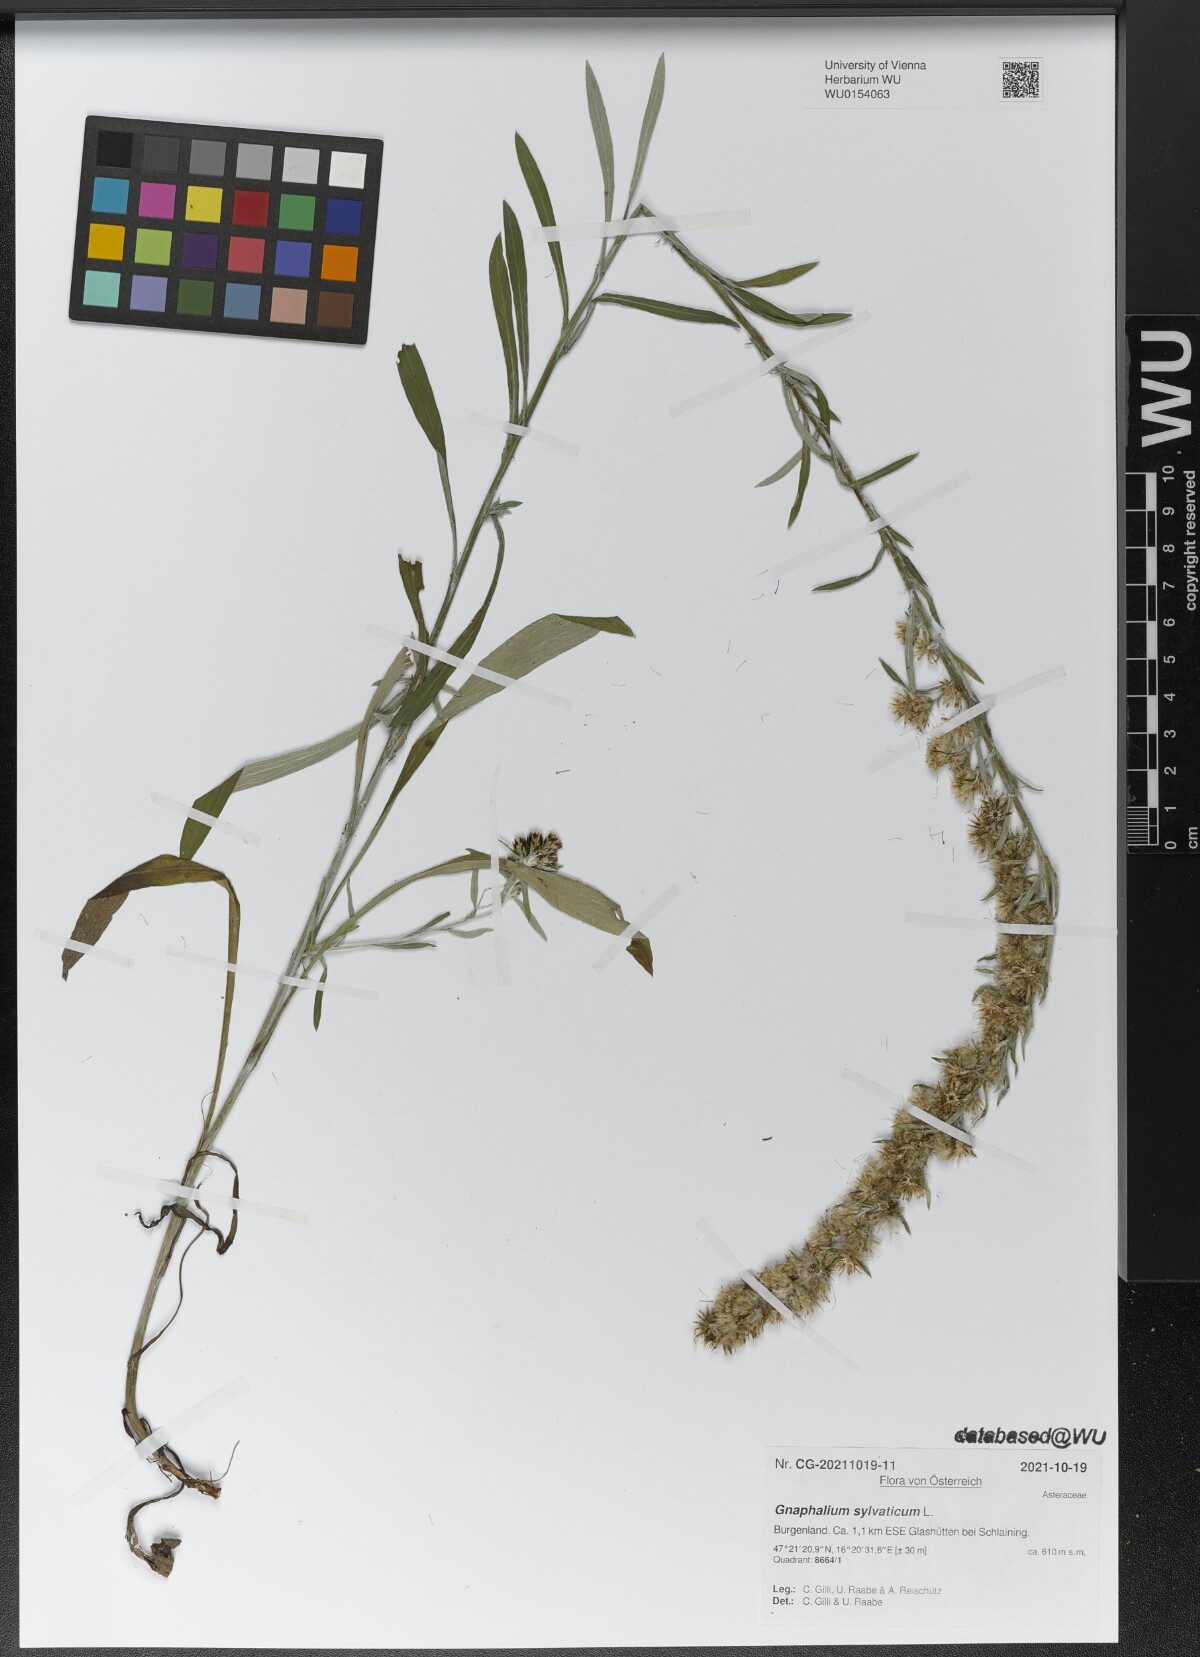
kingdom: Plantae
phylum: Tracheophyta
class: Magnoliopsida
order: Asterales
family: Asteraceae
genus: Omalotheca
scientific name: Omalotheca sylvatica
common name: Heath cudweed
